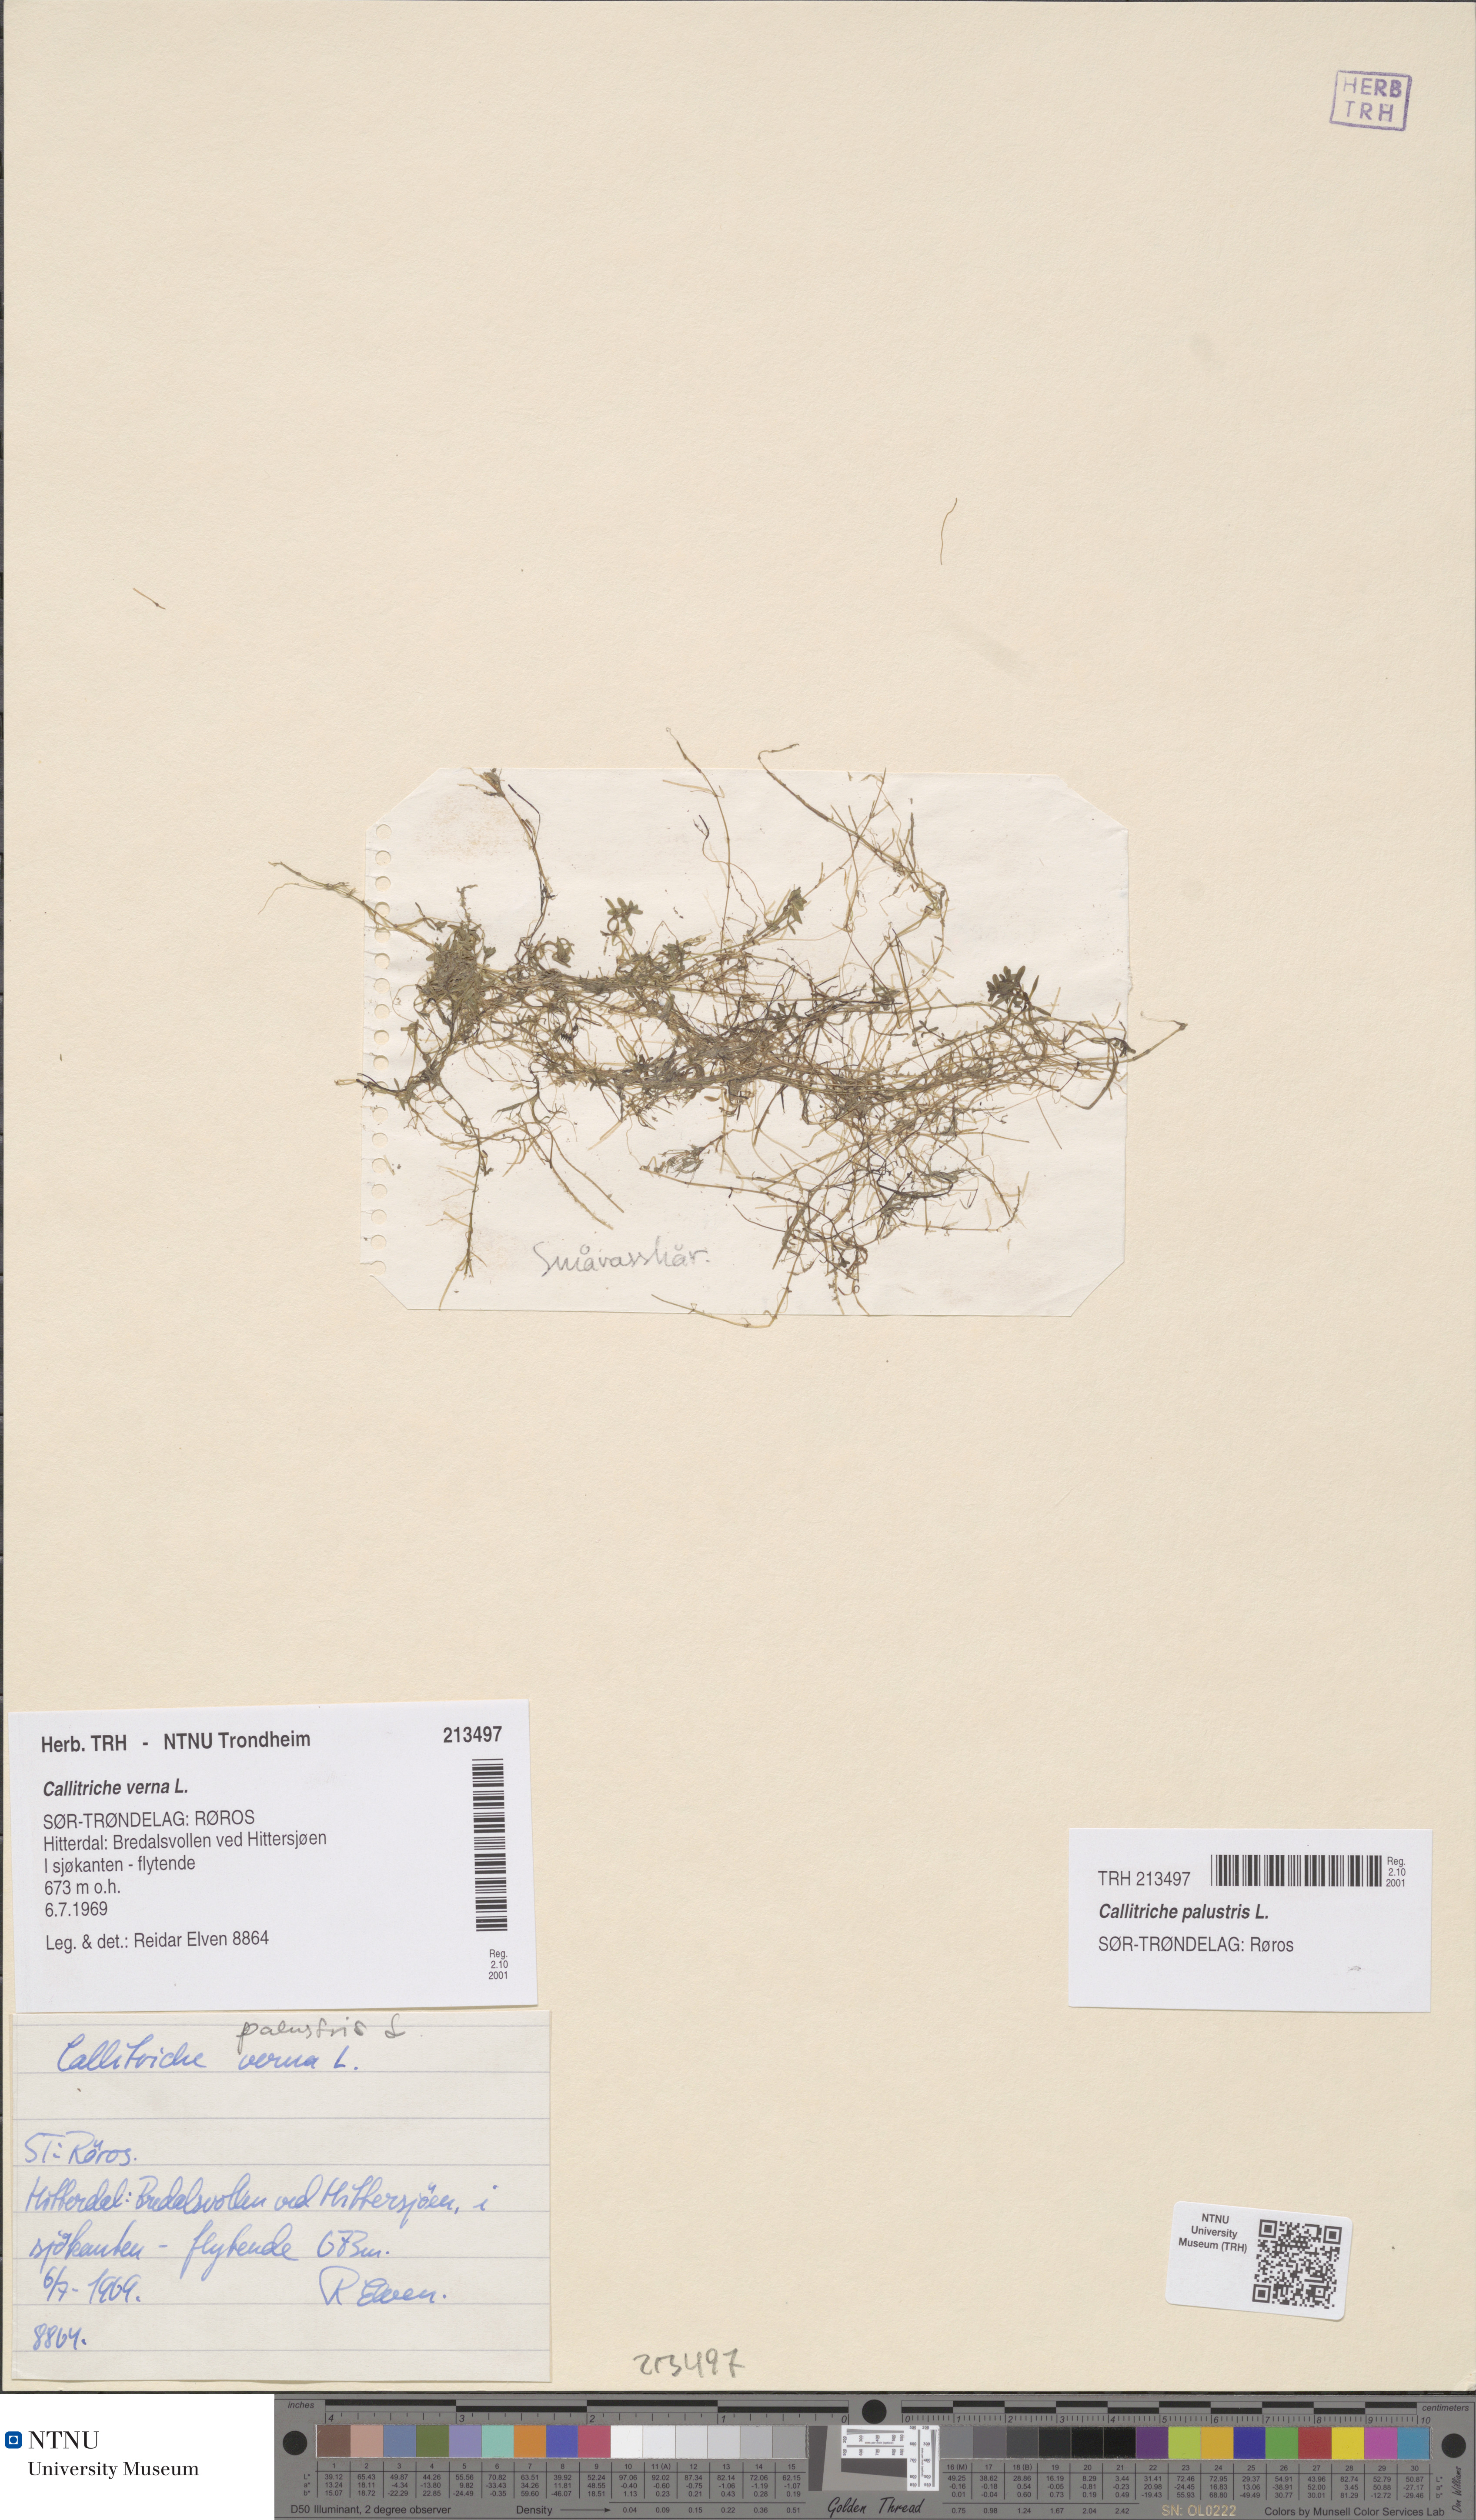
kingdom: Plantae
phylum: Tracheophyta
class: Magnoliopsida
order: Lamiales
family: Plantaginaceae
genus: Callitriche
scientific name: Callitriche palustris
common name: Spring water-starwort
